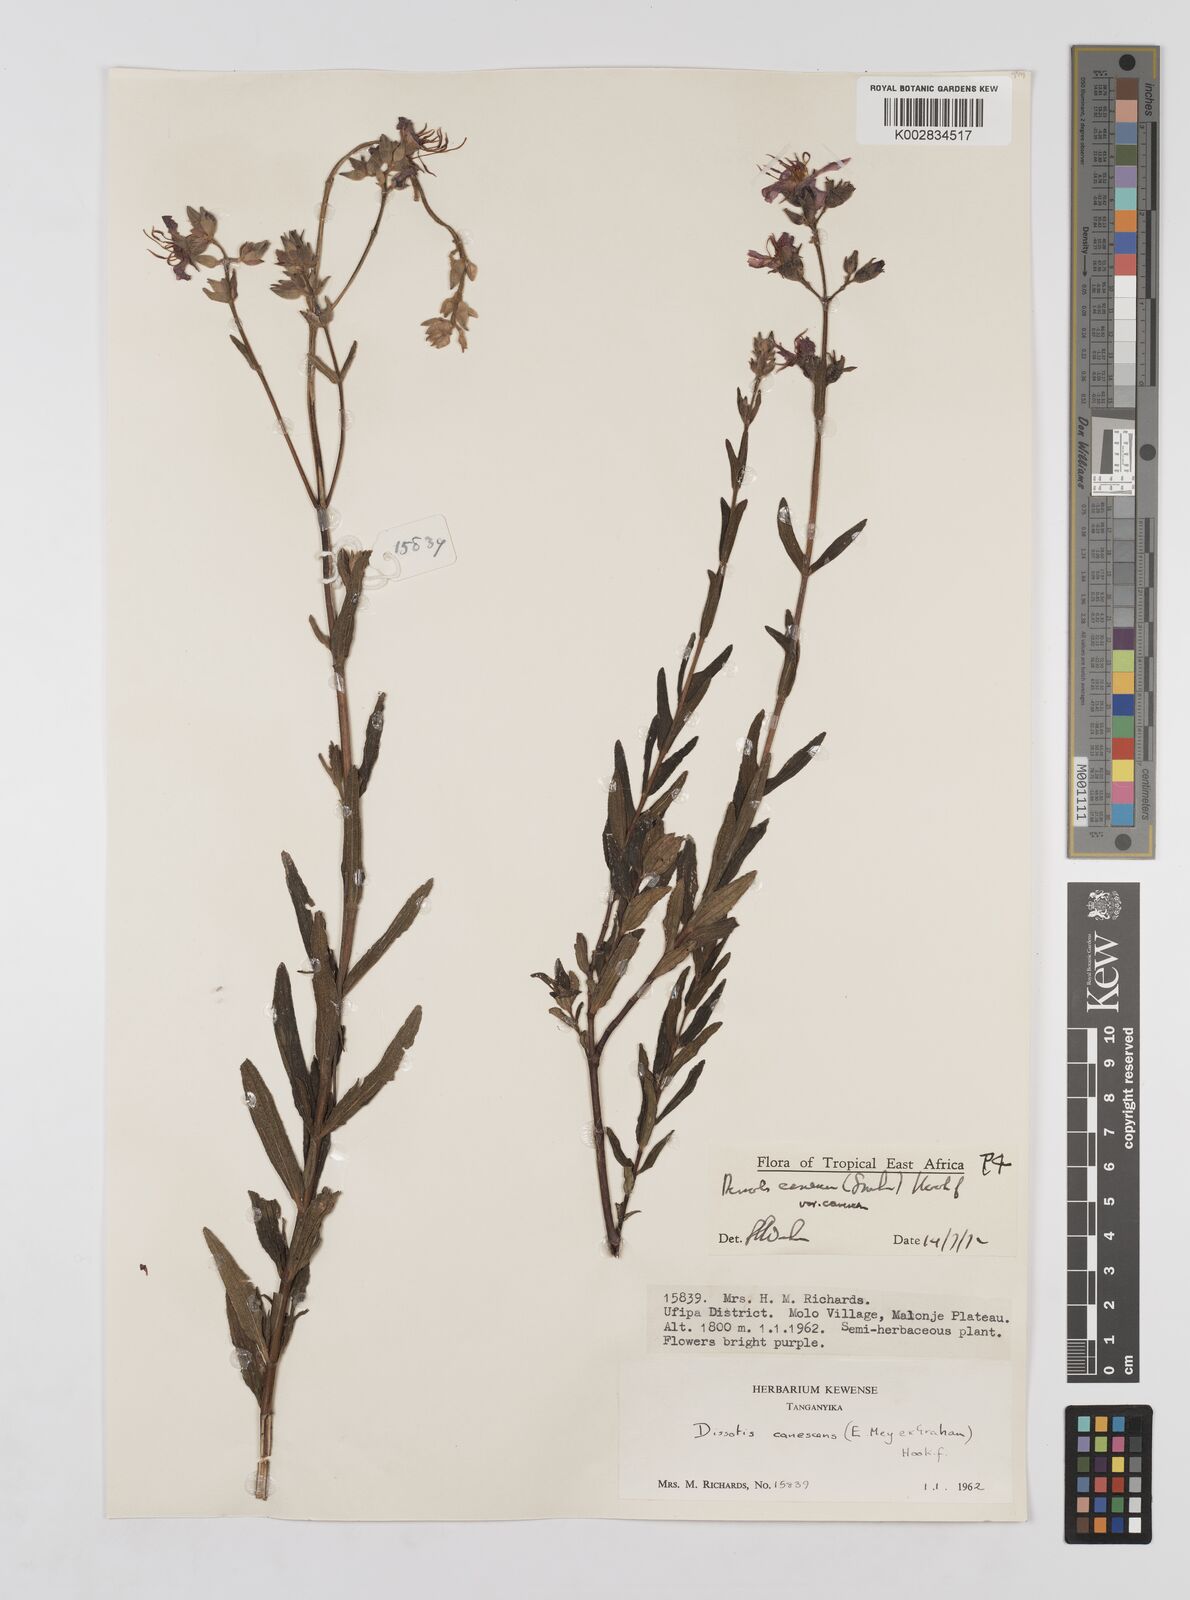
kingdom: Plantae
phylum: Tracheophyta
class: Magnoliopsida
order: Myrtales
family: Melastomataceae
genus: Argyrella
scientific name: Argyrella canescens
